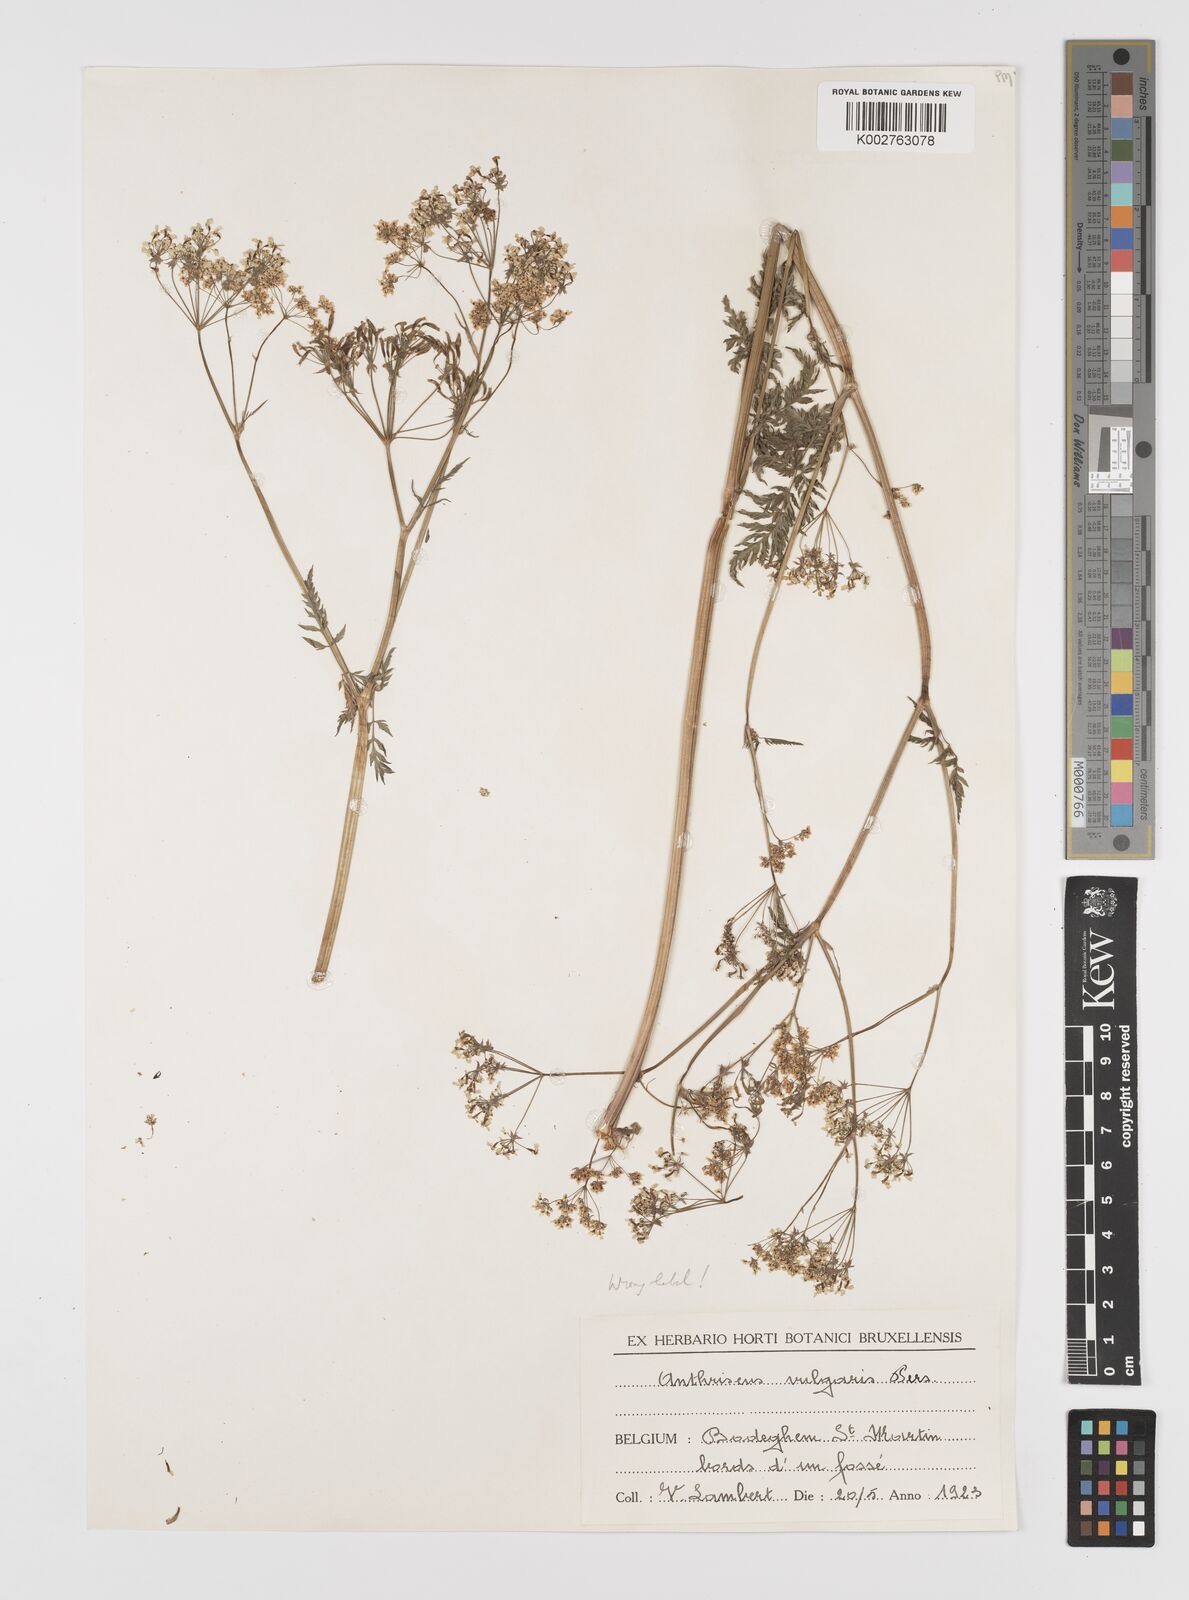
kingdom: Plantae
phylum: Tracheophyta
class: Magnoliopsida
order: Apiales
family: Apiaceae
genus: Anthriscus
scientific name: Anthriscus caucalis
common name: Bur chervil
